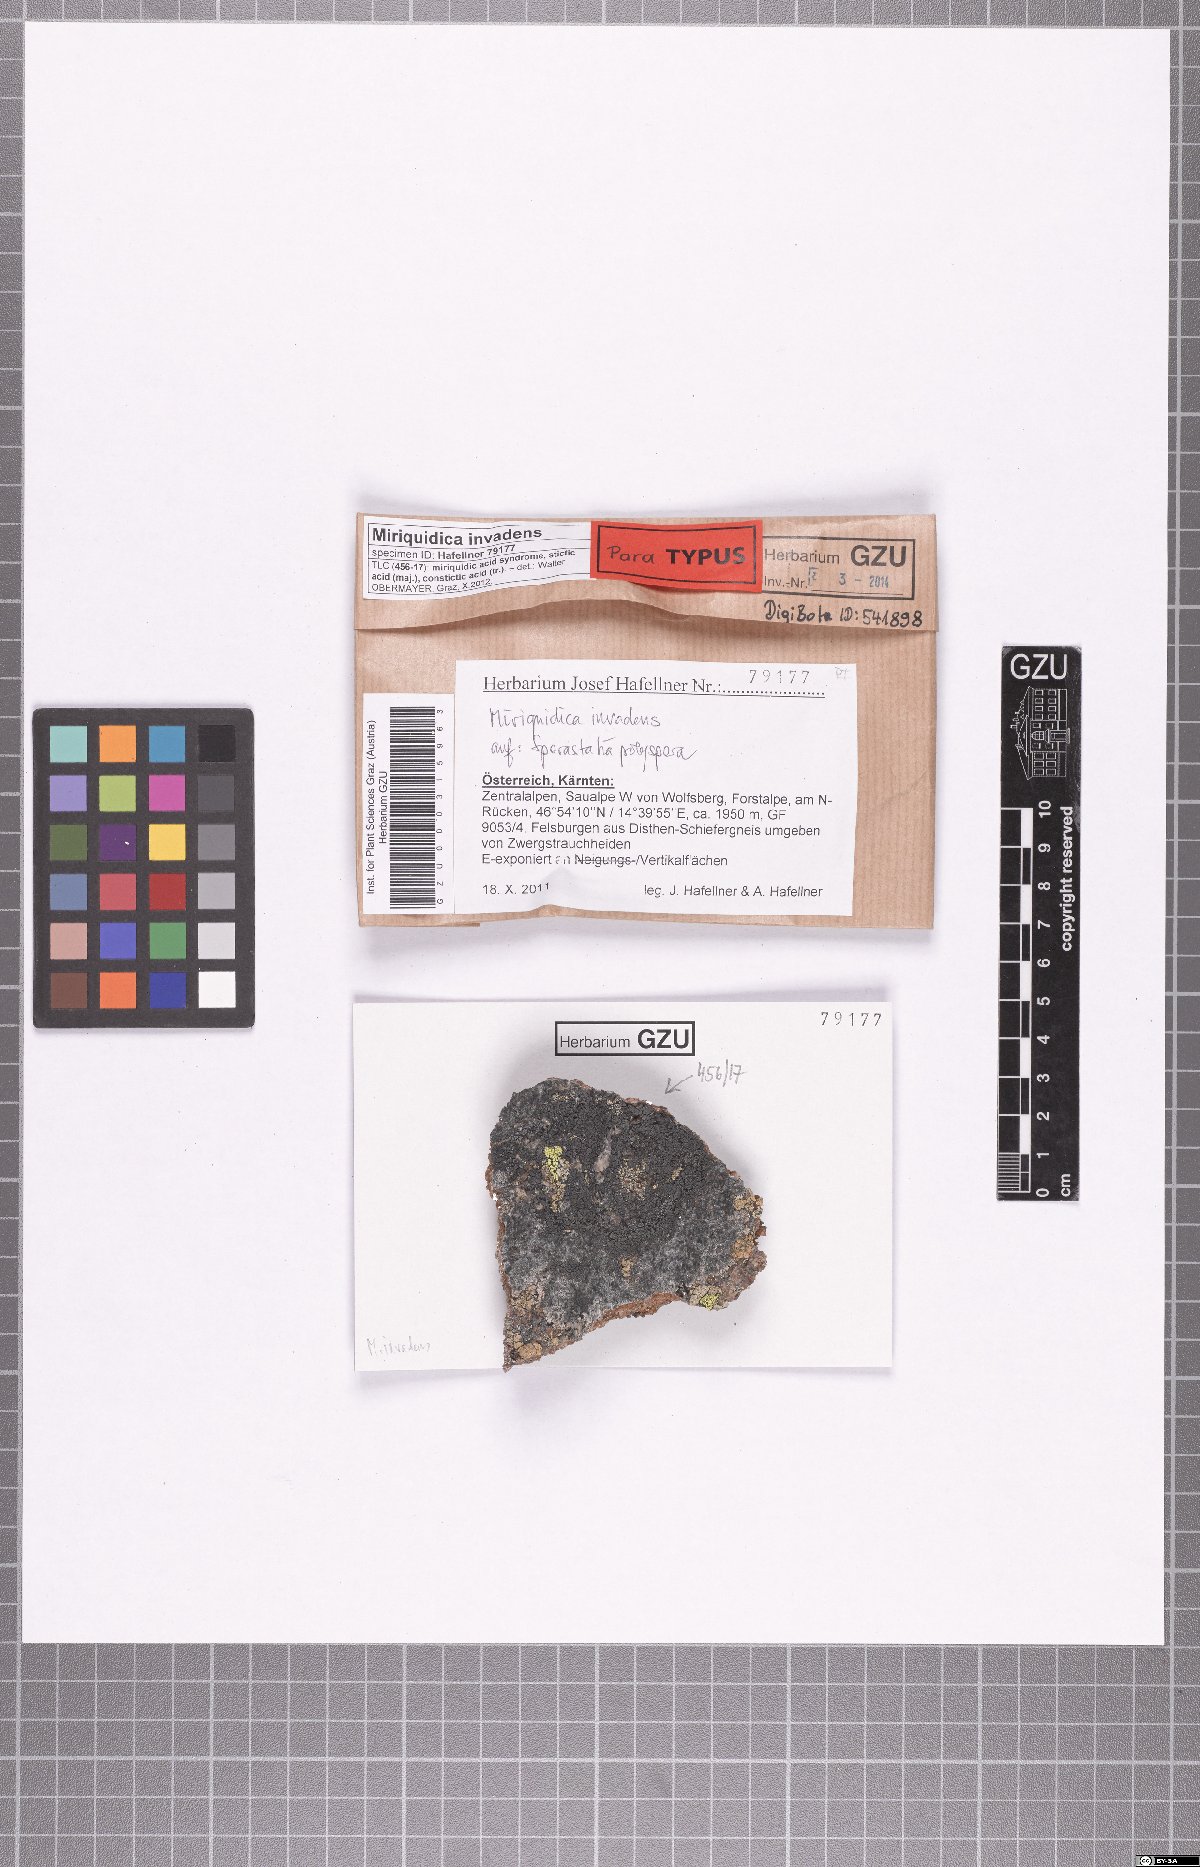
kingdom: Fungi
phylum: Ascomycota
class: Lecanoromycetes
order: Lecanorales
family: Lecanoraceae
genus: Miriquidica
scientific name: Miriquidica invadens
